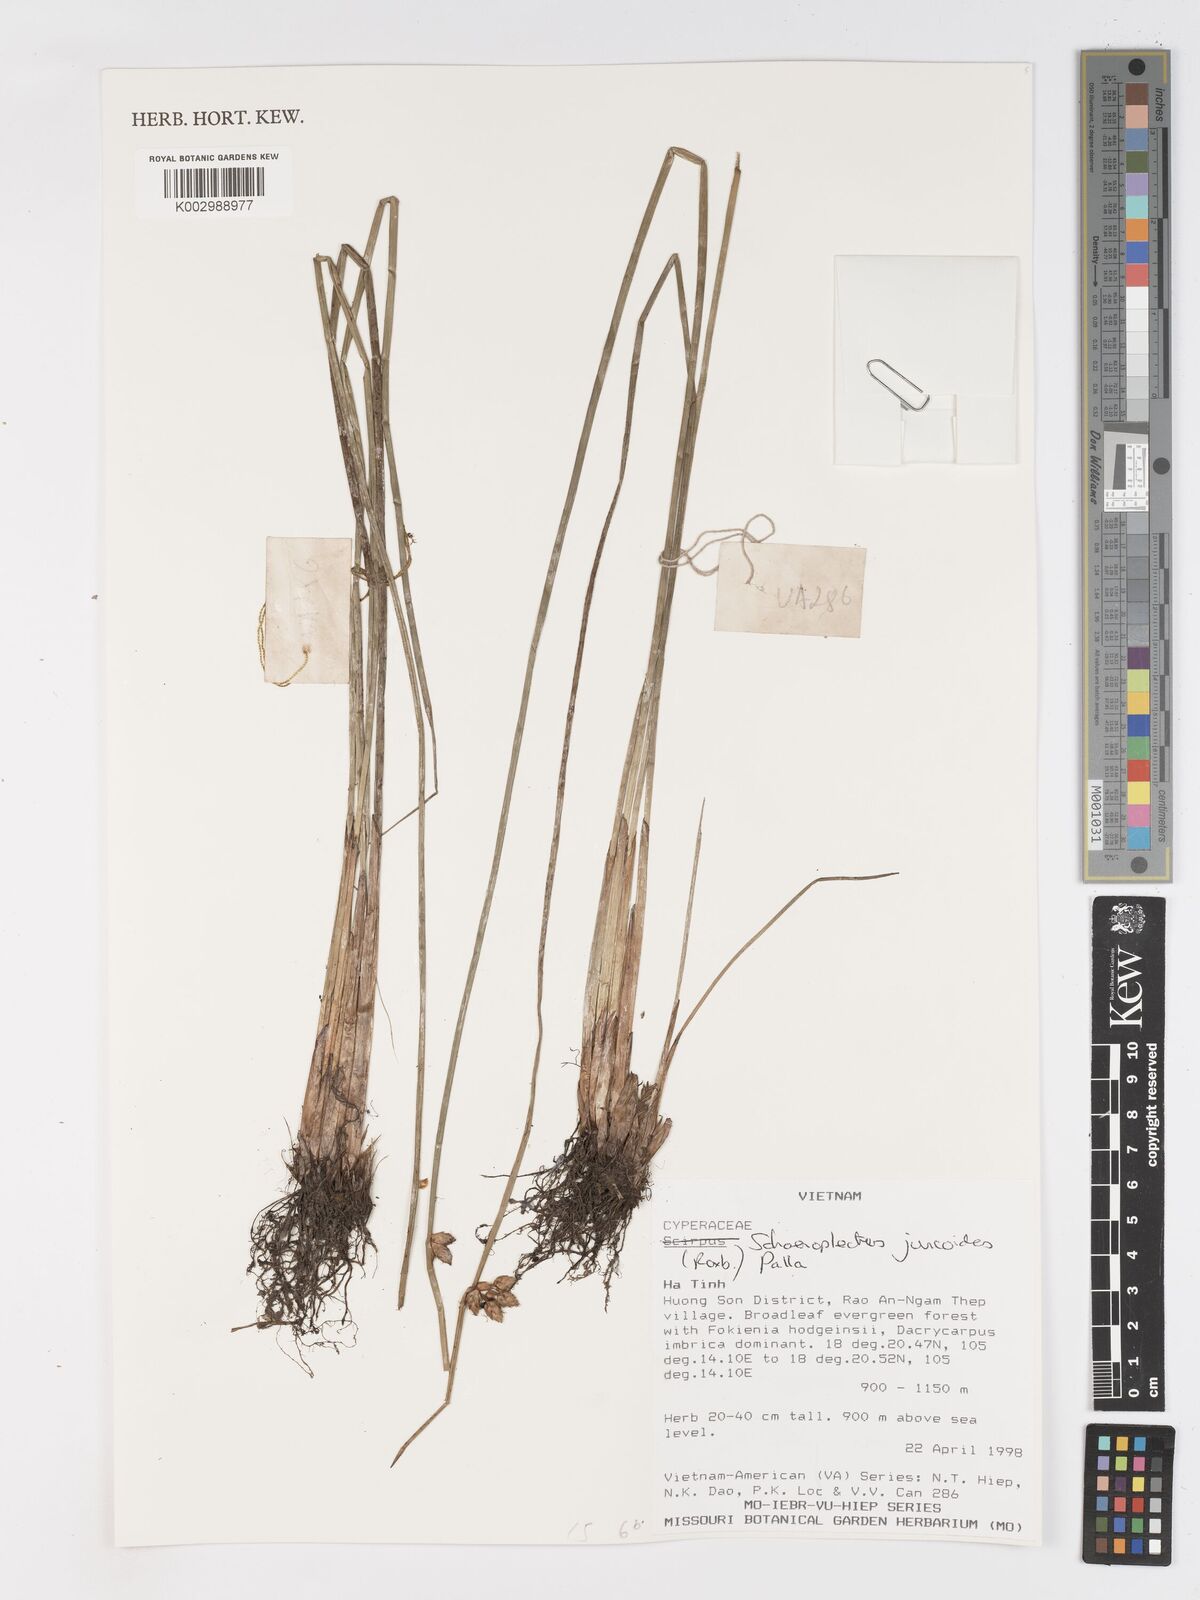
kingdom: Plantae
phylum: Tracheophyta
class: Liliopsida
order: Poales
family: Cyperaceae
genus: Schoenoplectiella
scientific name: Schoenoplectiella juncoides
